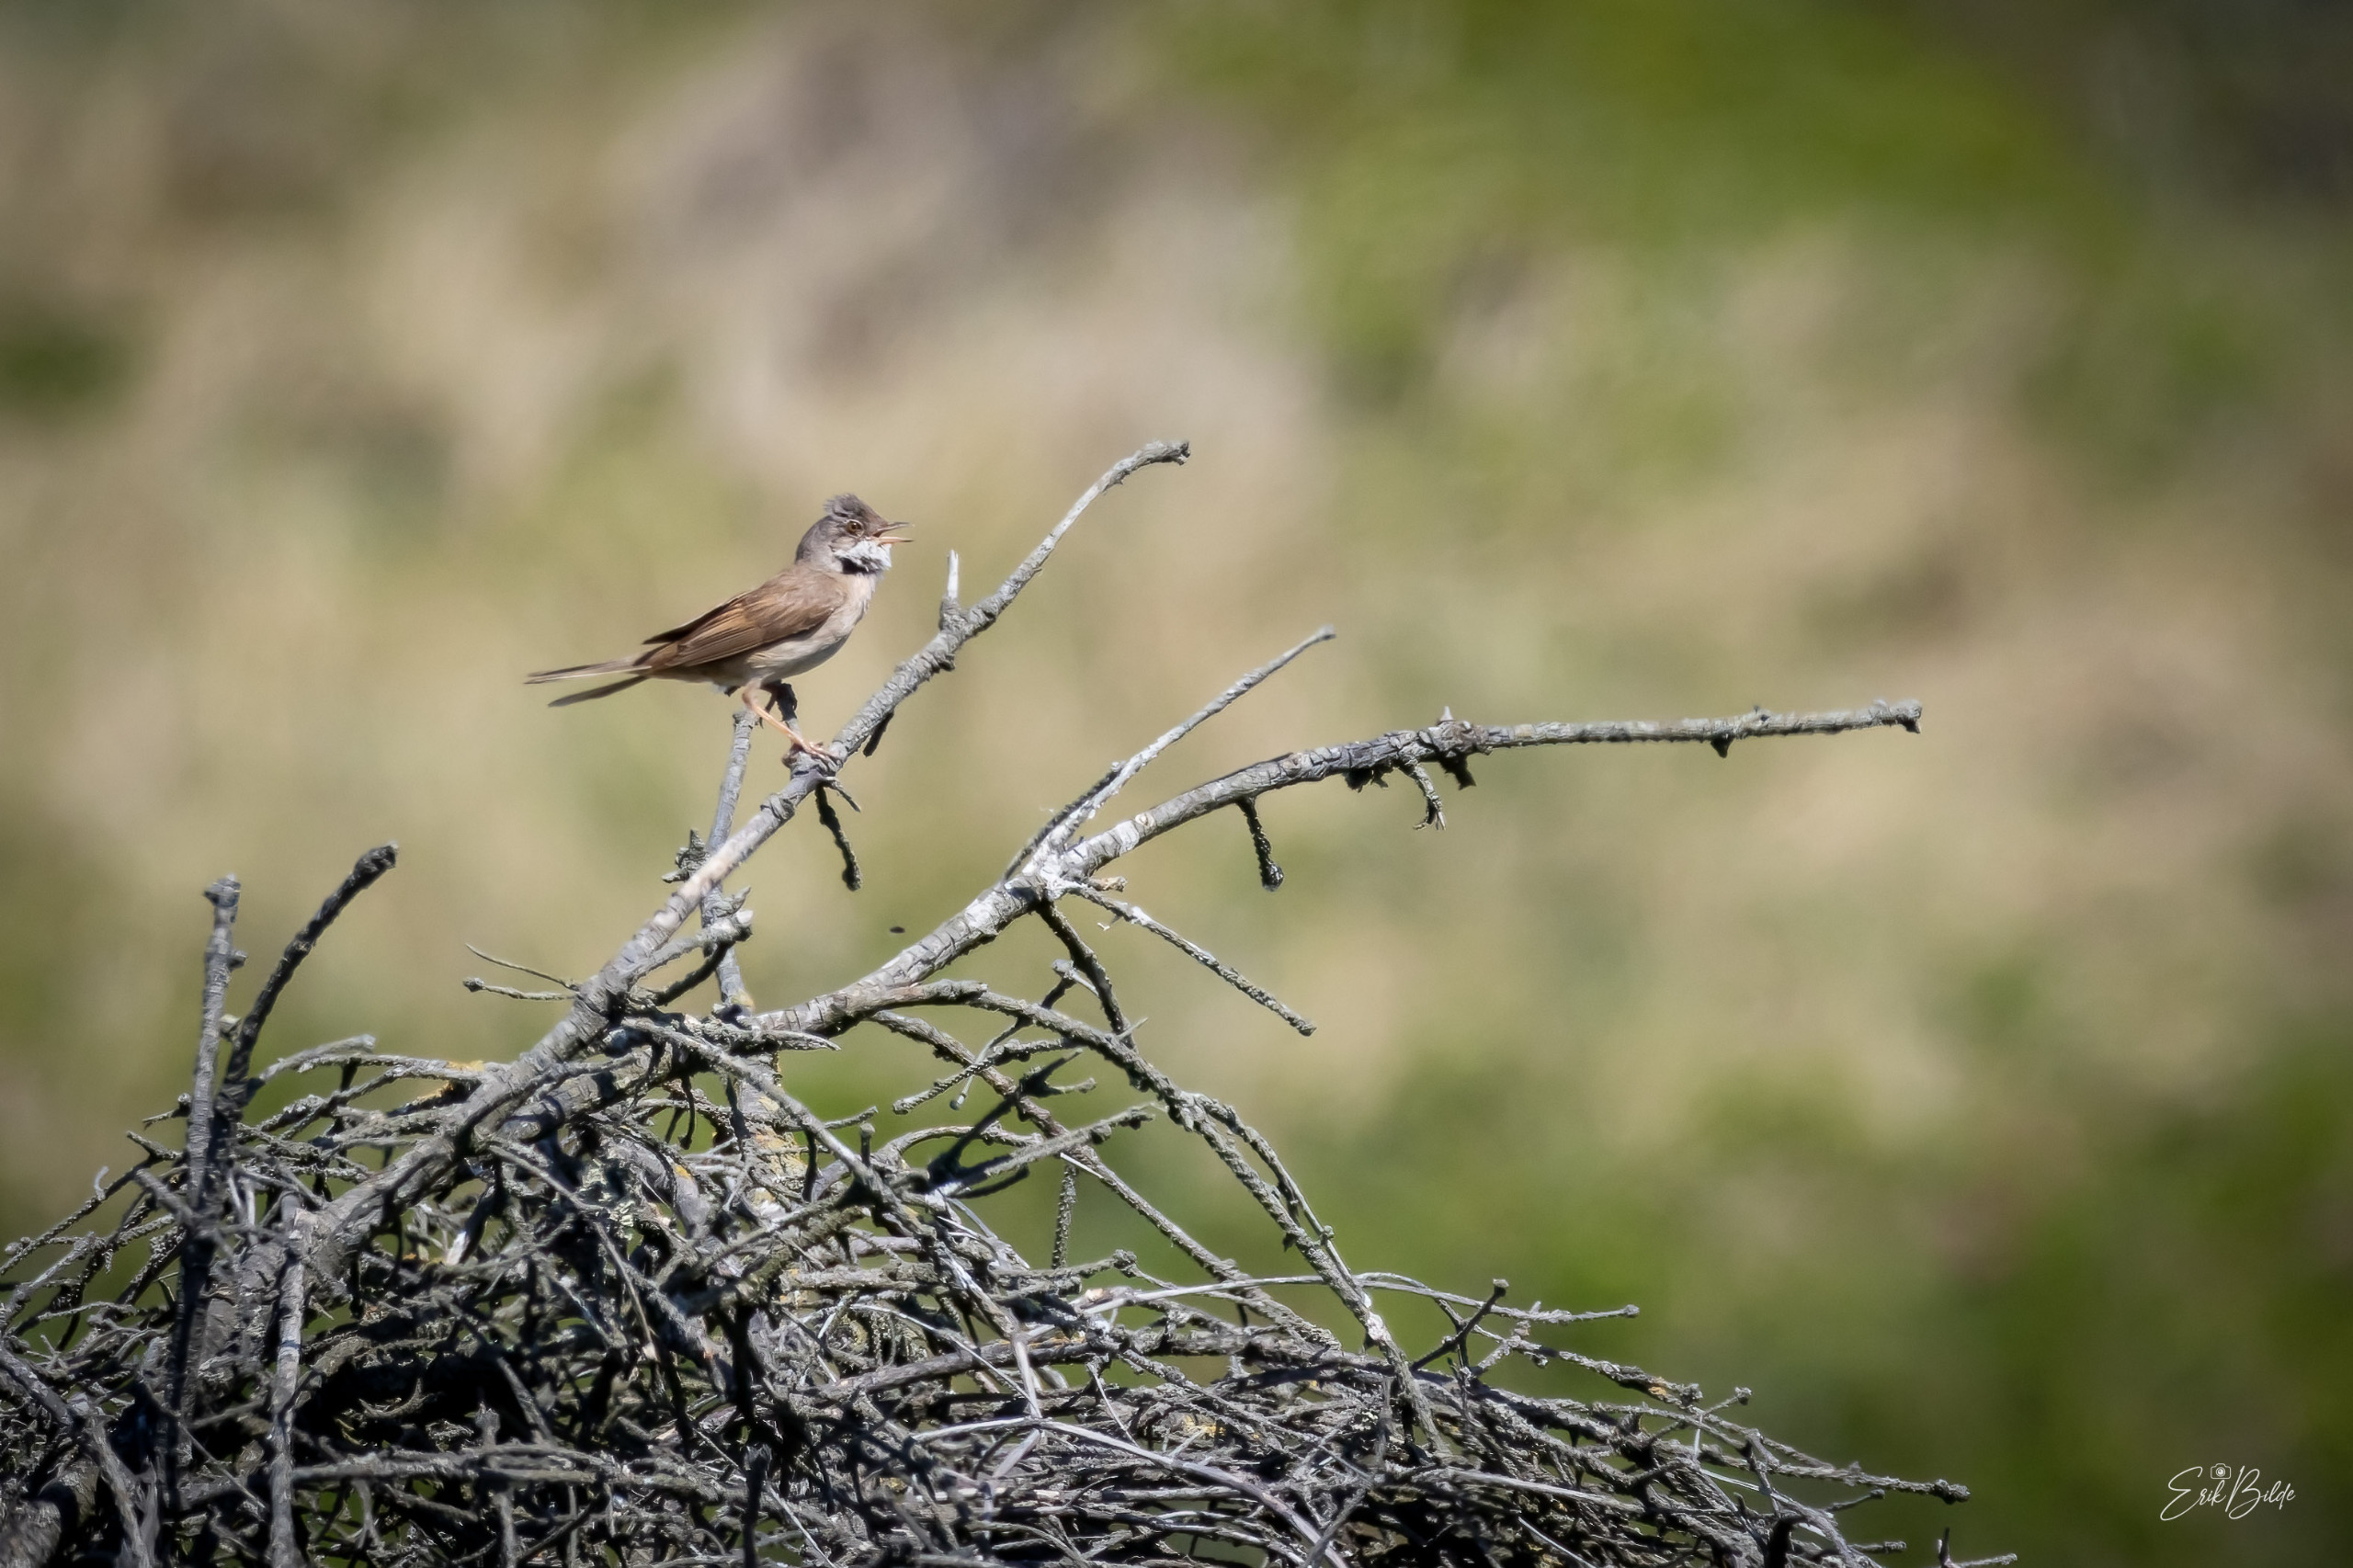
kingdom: Animalia
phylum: Chordata
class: Aves
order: Passeriformes
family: Sylviidae
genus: Sylvia
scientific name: Sylvia communis
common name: Tornsanger
